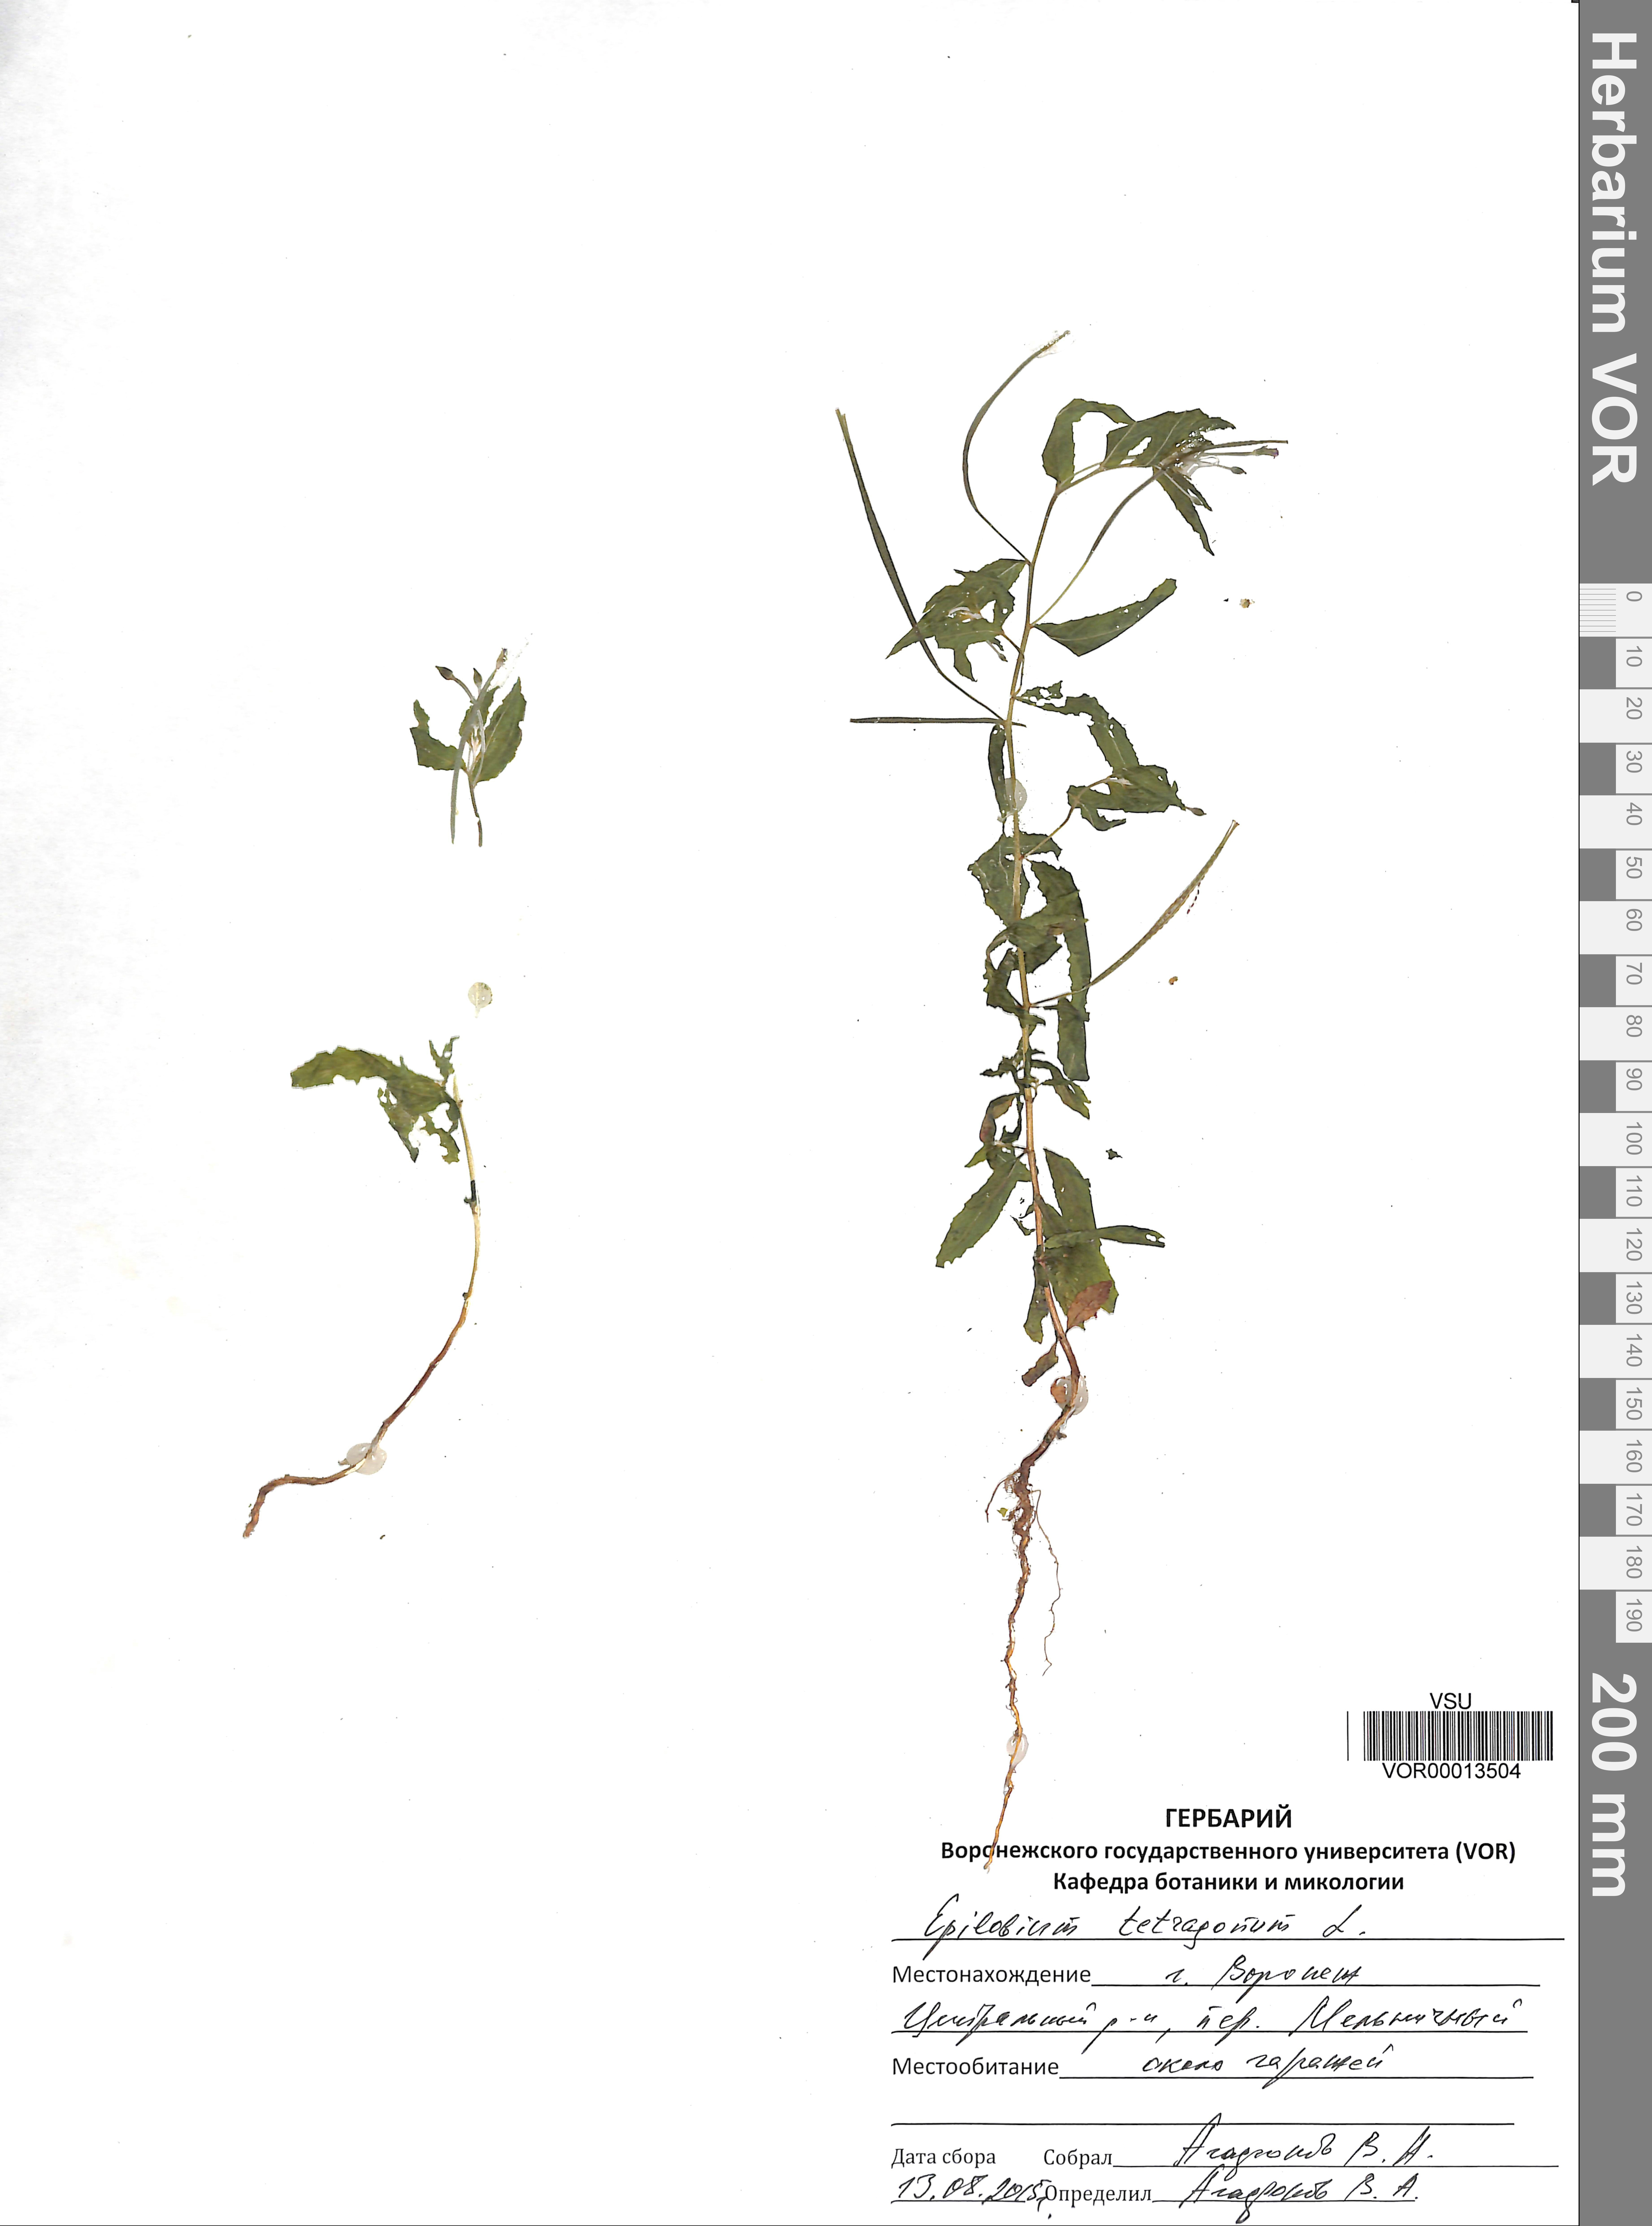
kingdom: Plantae
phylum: Tracheophyta
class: Magnoliopsida
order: Myrtales
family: Onagraceae
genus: Epilobium
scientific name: Epilobium tetragonum
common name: Square-stemmed willowherb
